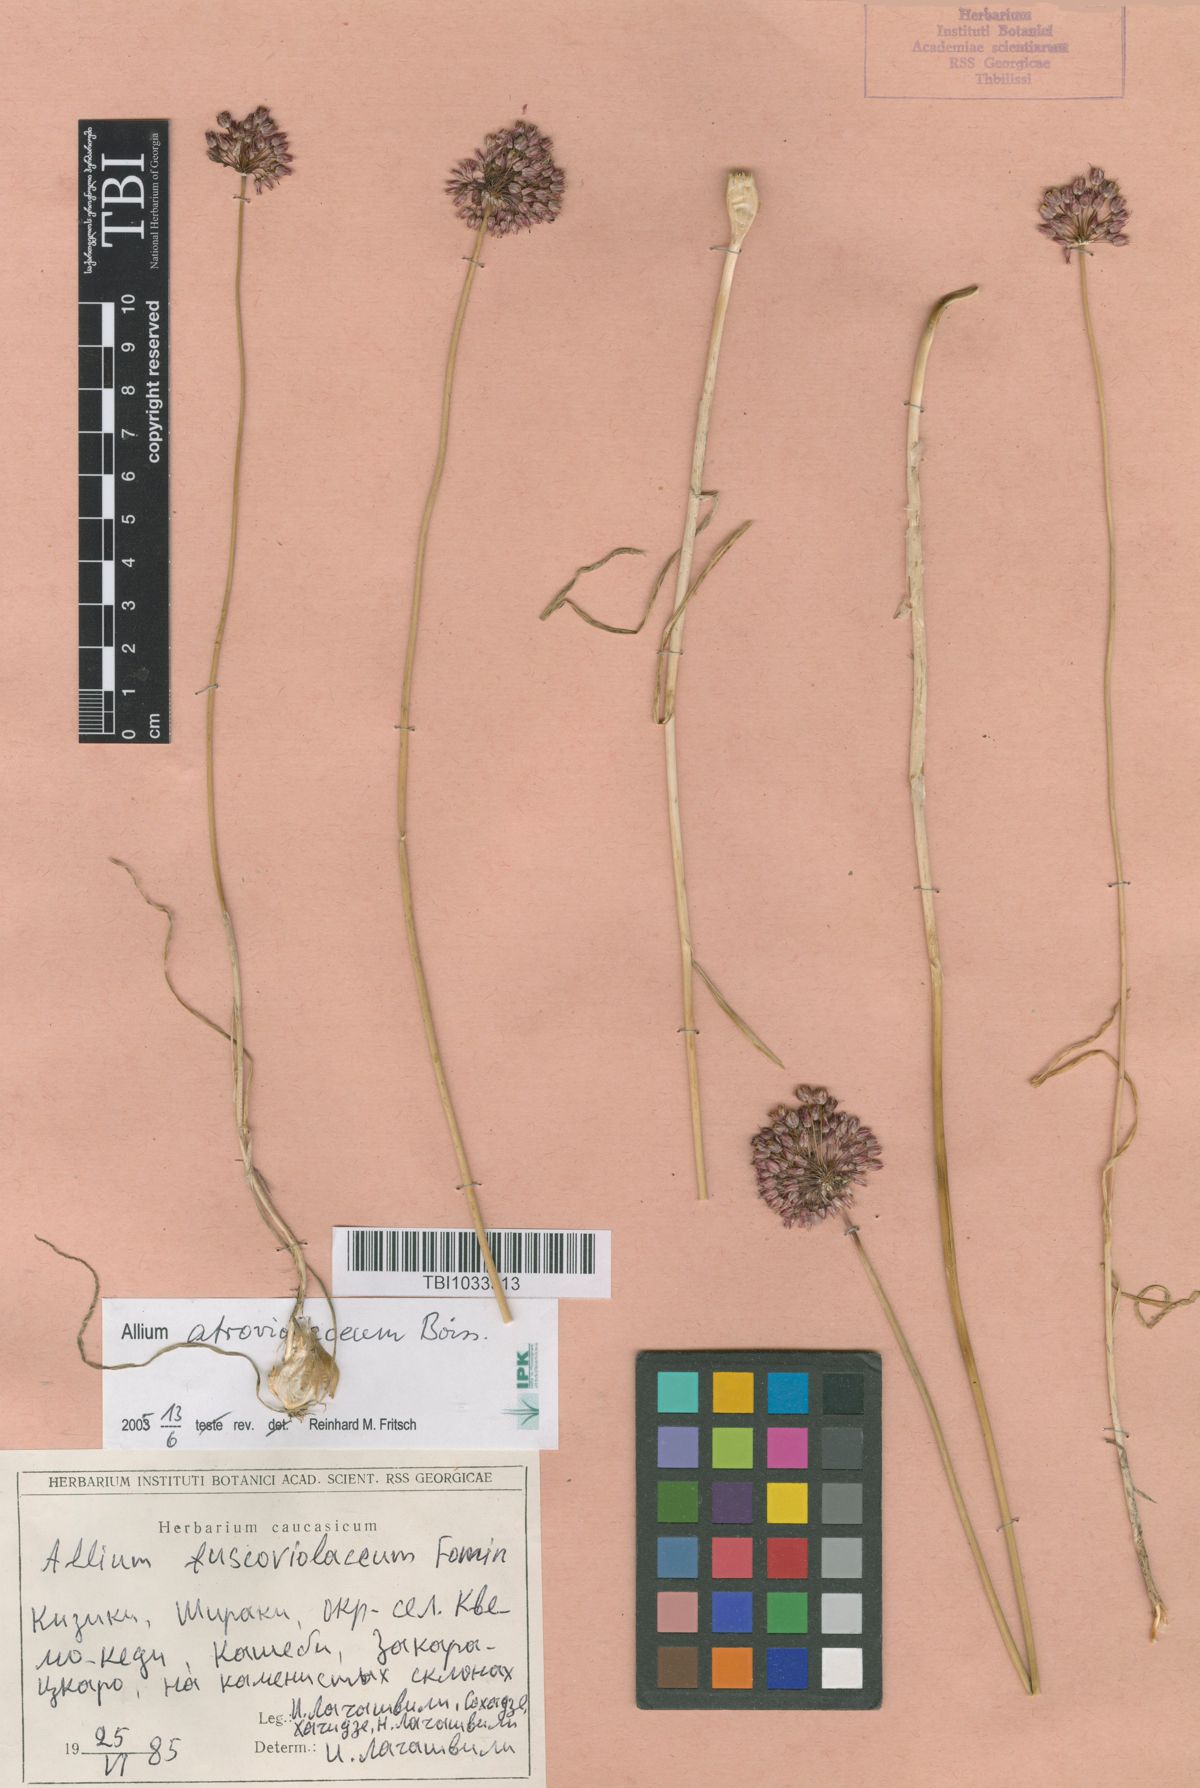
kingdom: Plantae
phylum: Tracheophyta
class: Liliopsida
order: Asparagales
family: Amaryllidaceae
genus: Allium
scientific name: Allium fuscoviolaceum
